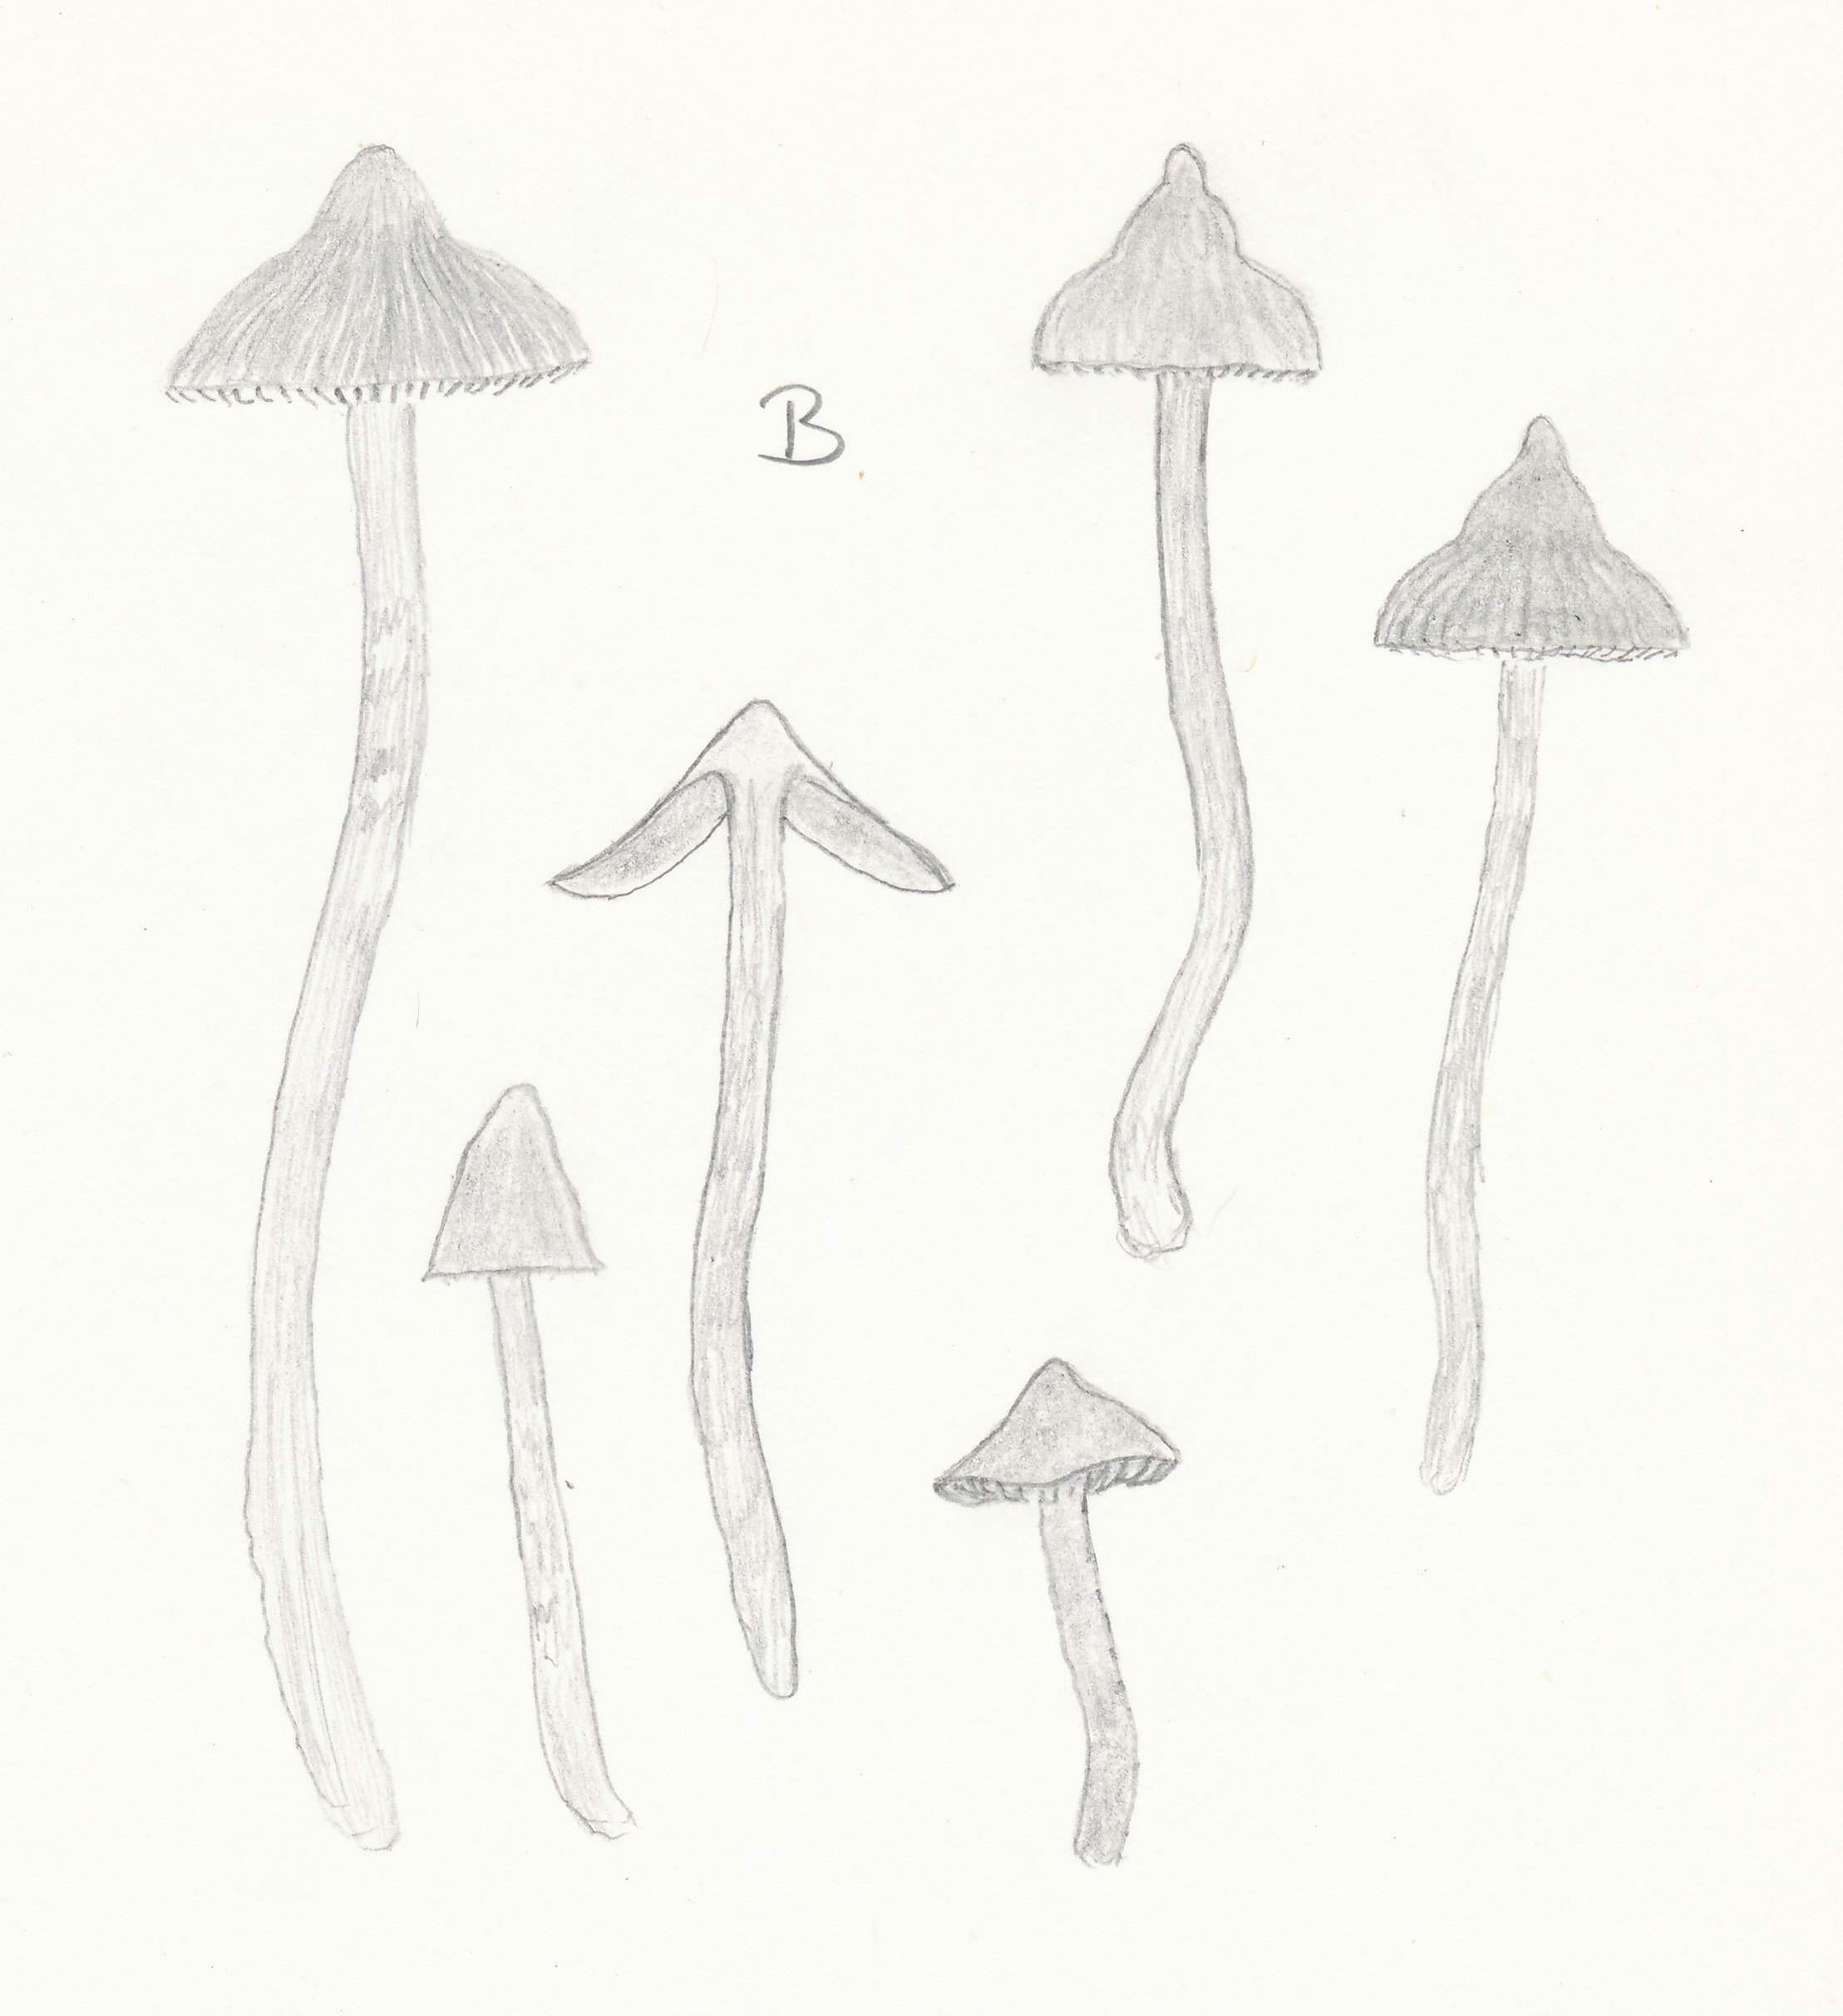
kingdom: Fungi
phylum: Basidiomycota
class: Agaricomycetes
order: Agaricales
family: Cortinariaceae
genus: Cortinarius
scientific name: Cortinarius acutus
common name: spids slørhat
